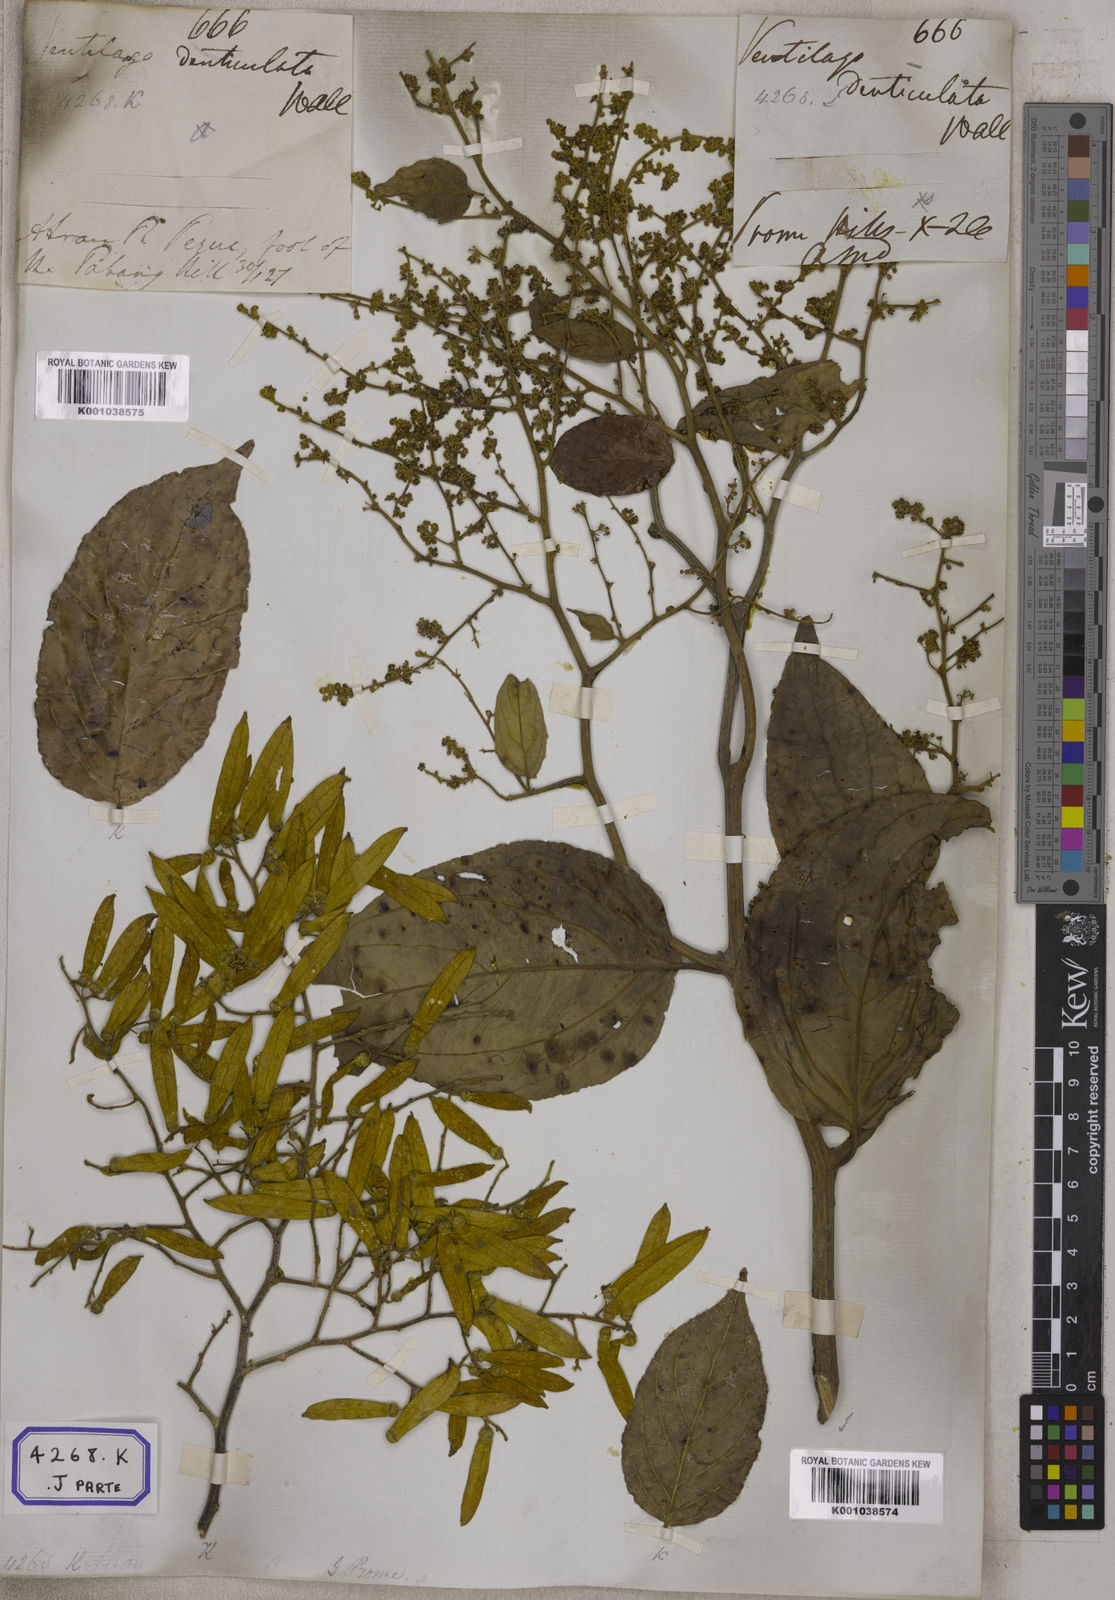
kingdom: Plantae
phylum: Tracheophyta
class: Magnoliopsida
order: Rosales
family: Rhamnaceae
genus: Ventilago
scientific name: Ventilago madraspatana
